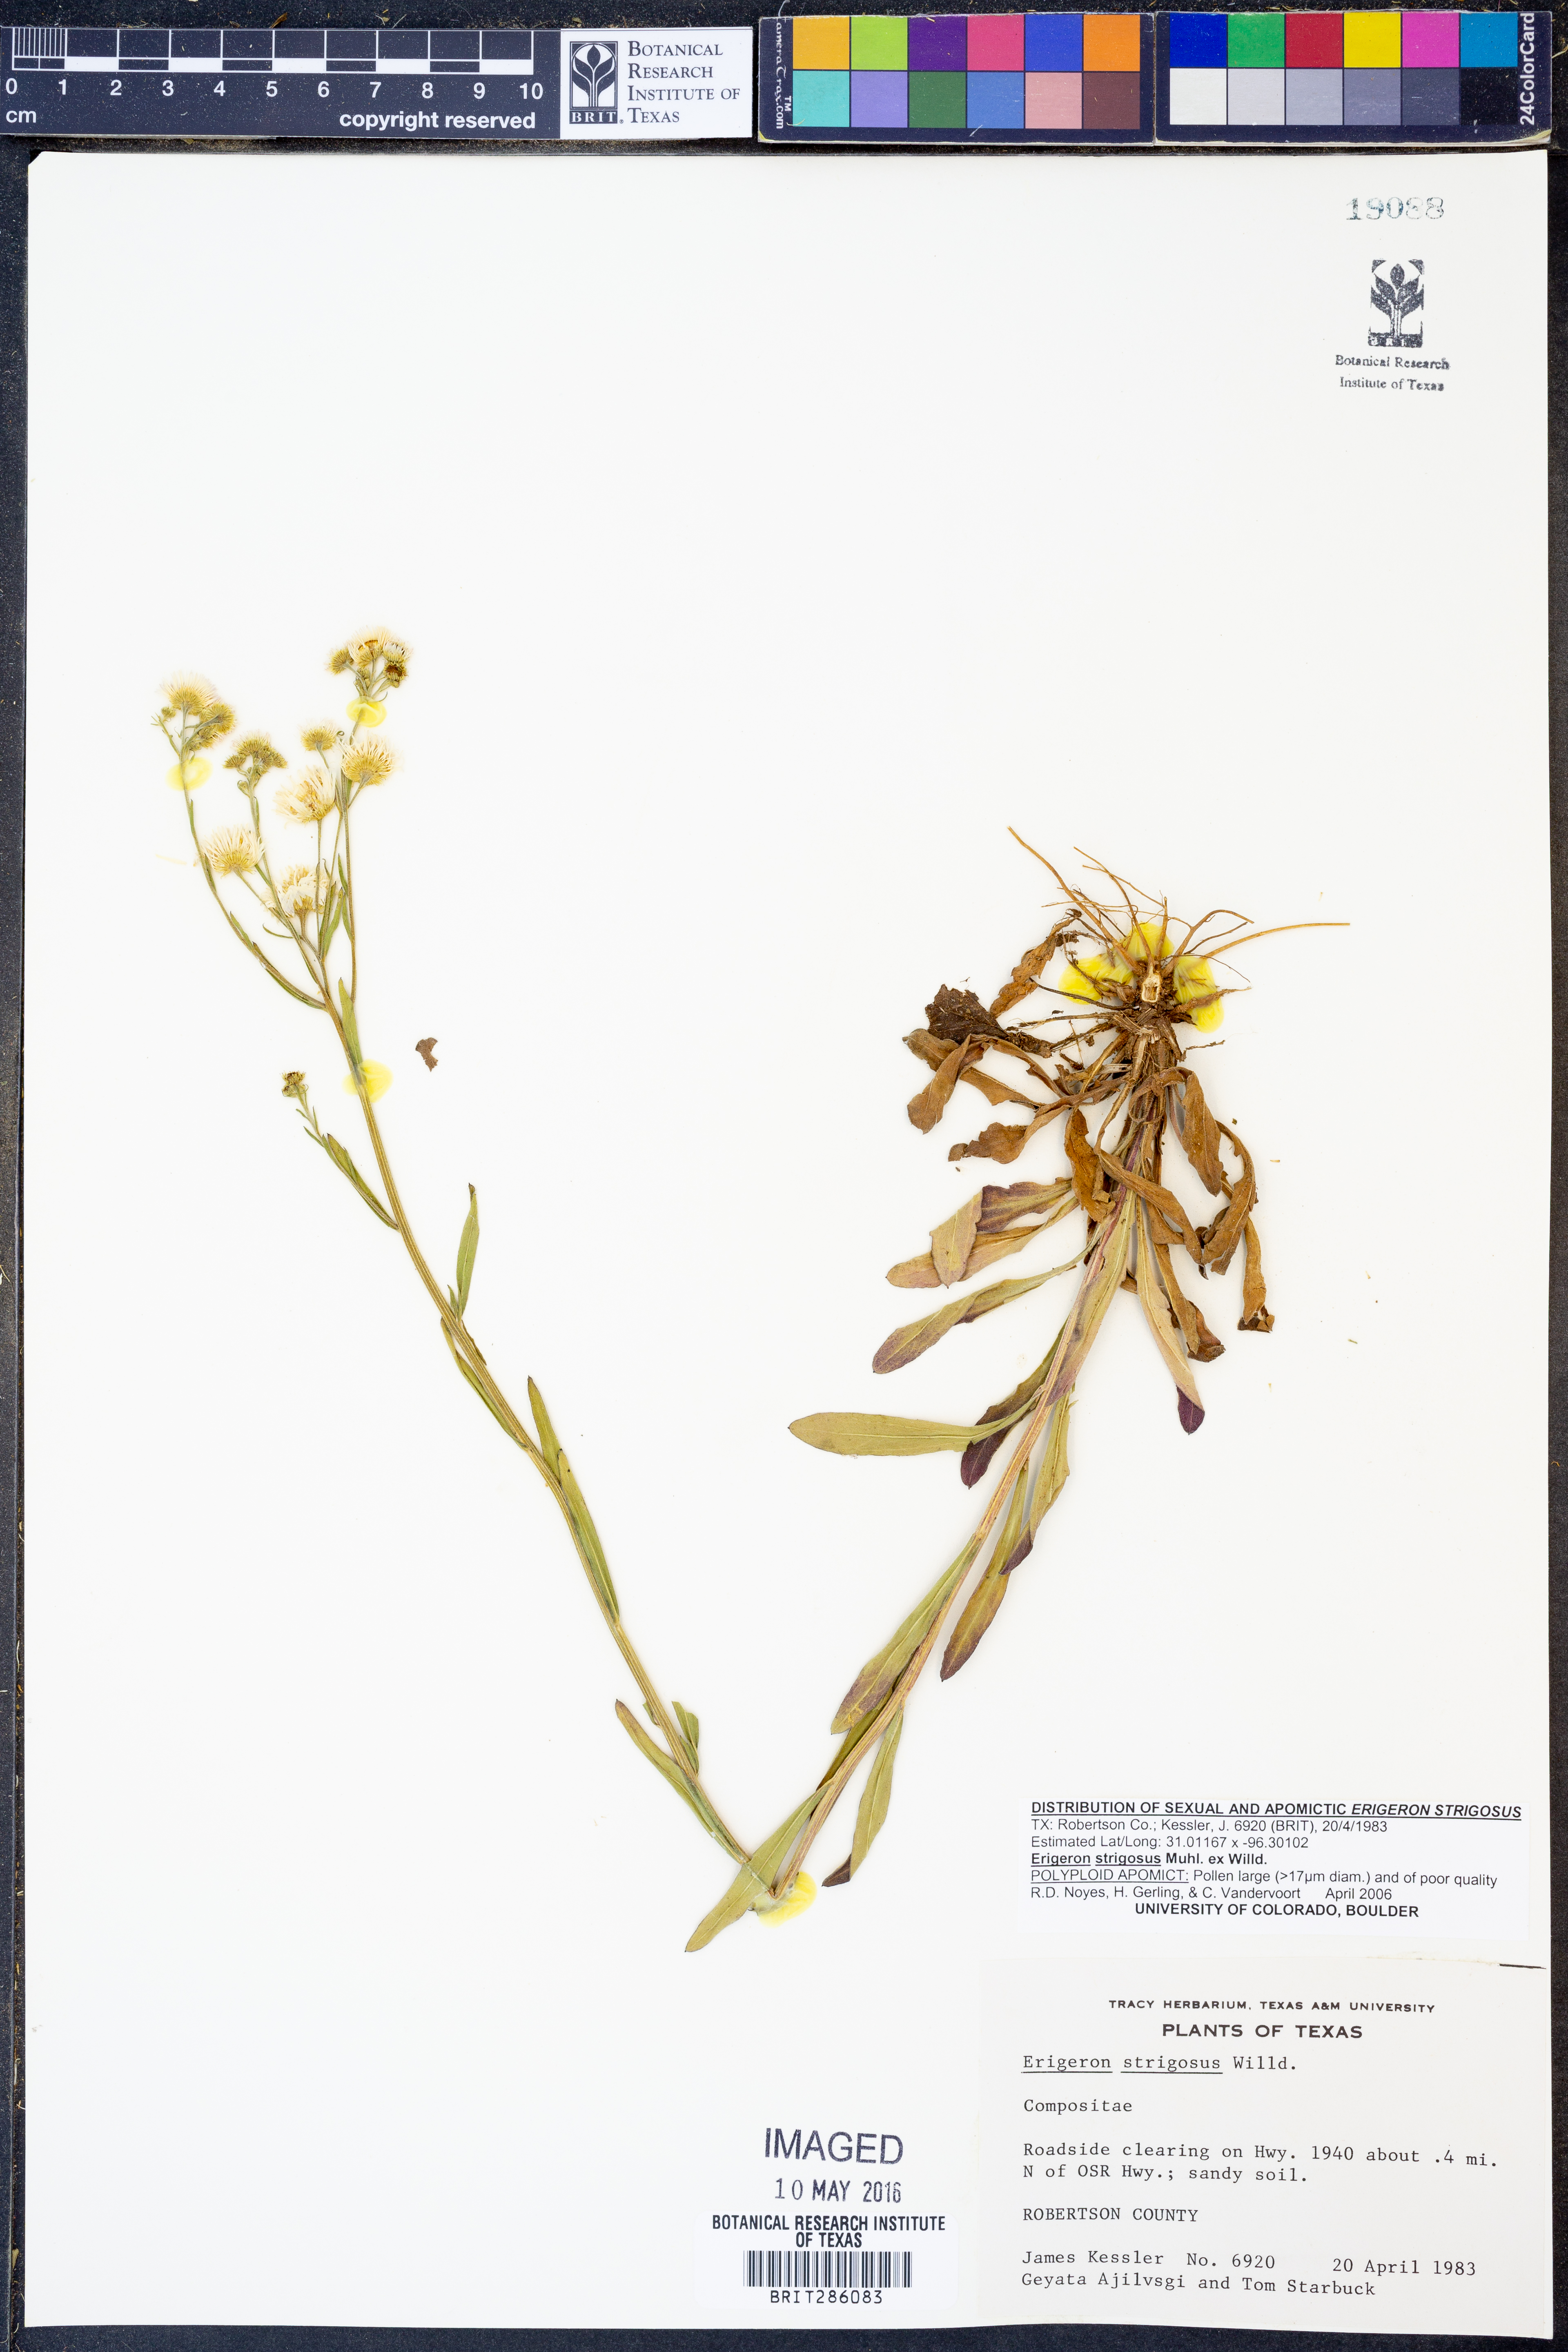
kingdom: Plantae
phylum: Tracheophyta
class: Magnoliopsida
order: Asterales
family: Asteraceae
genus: Erigeron
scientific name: Erigeron strigosus
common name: Common eastern fleabane
